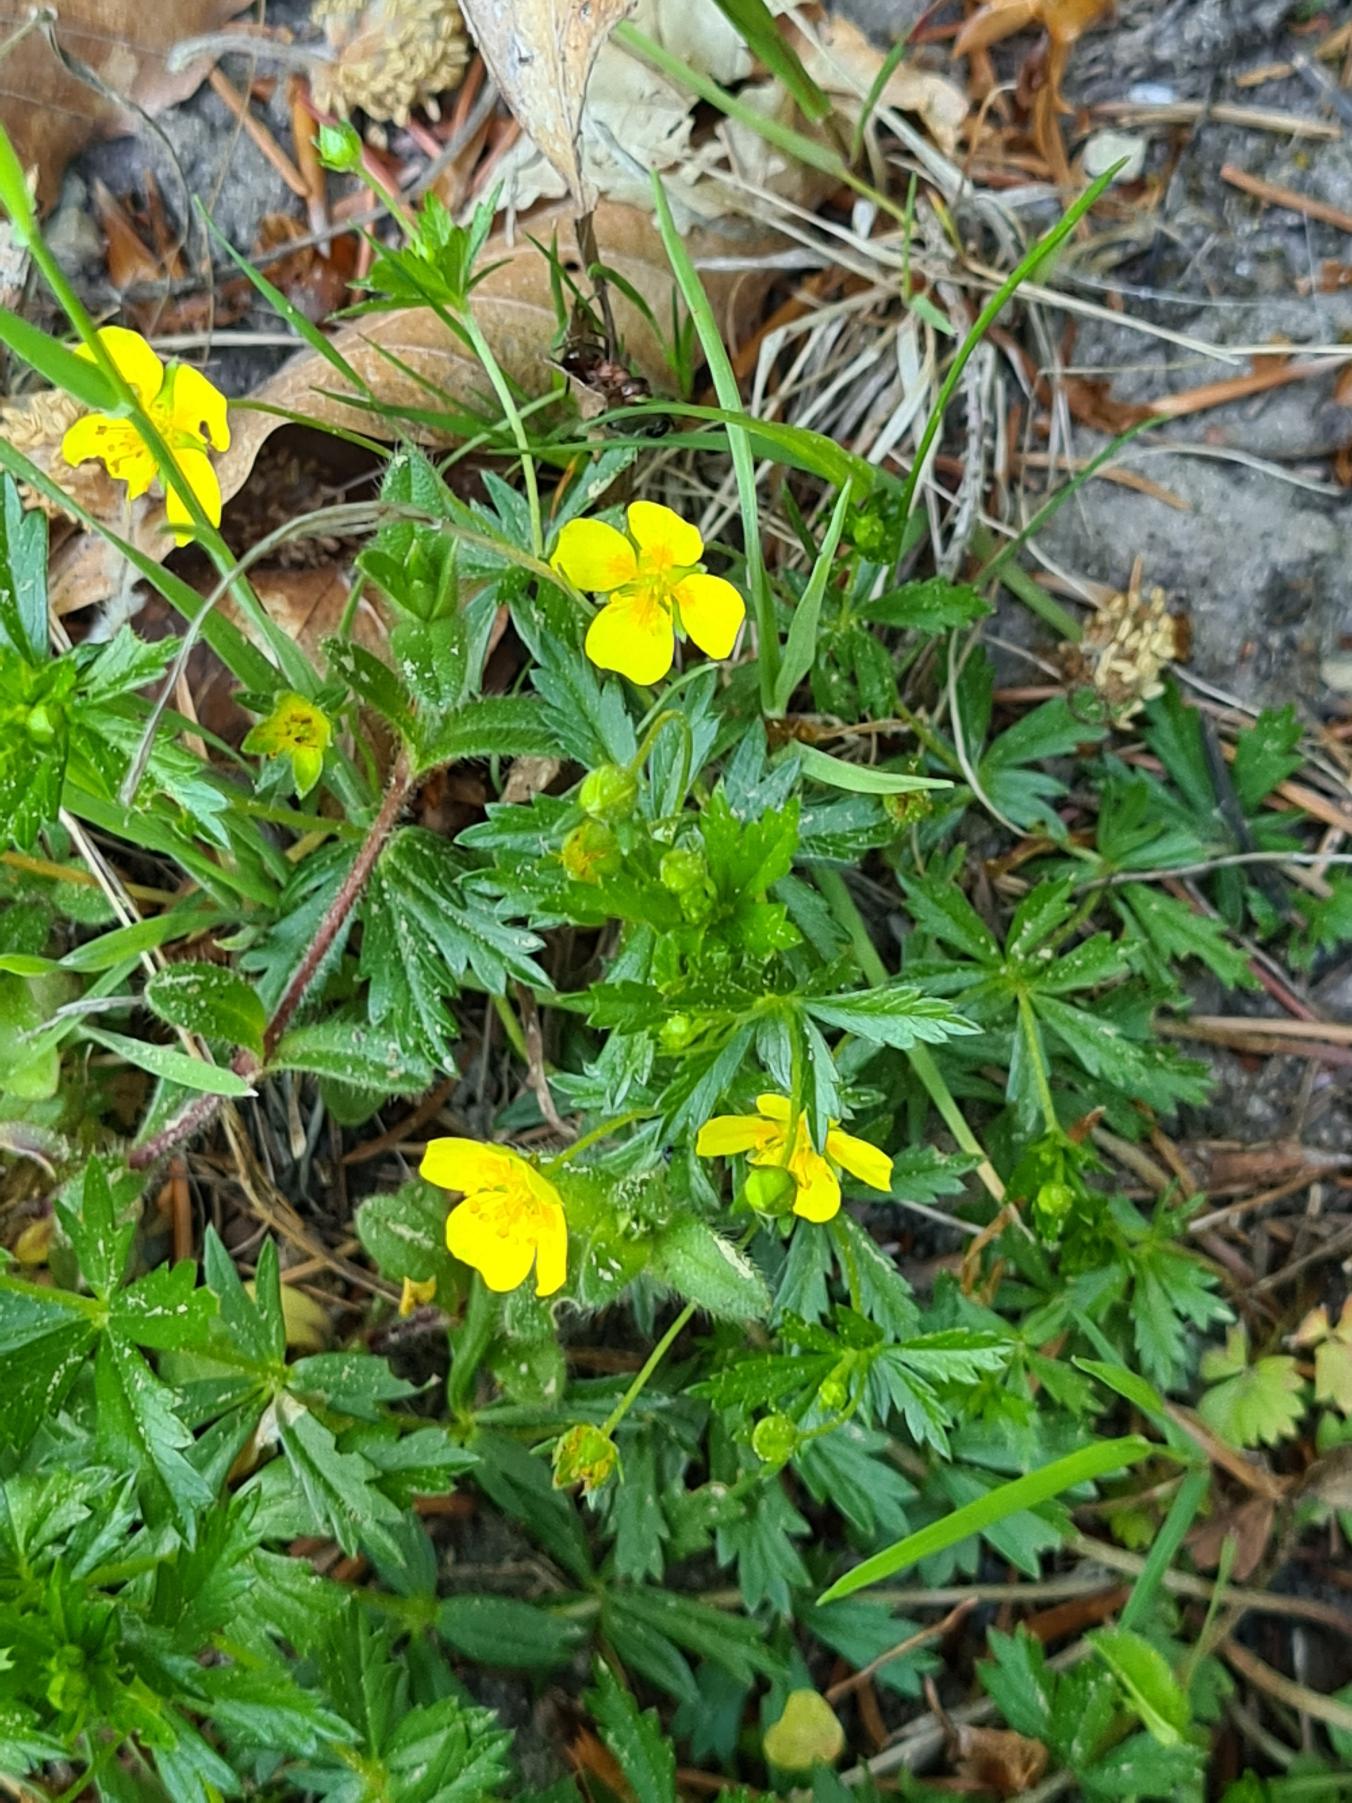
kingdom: Plantae
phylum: Tracheophyta
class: Magnoliopsida
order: Rosales
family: Rosaceae
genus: Potentilla
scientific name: Potentilla erecta
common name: Tormentil
